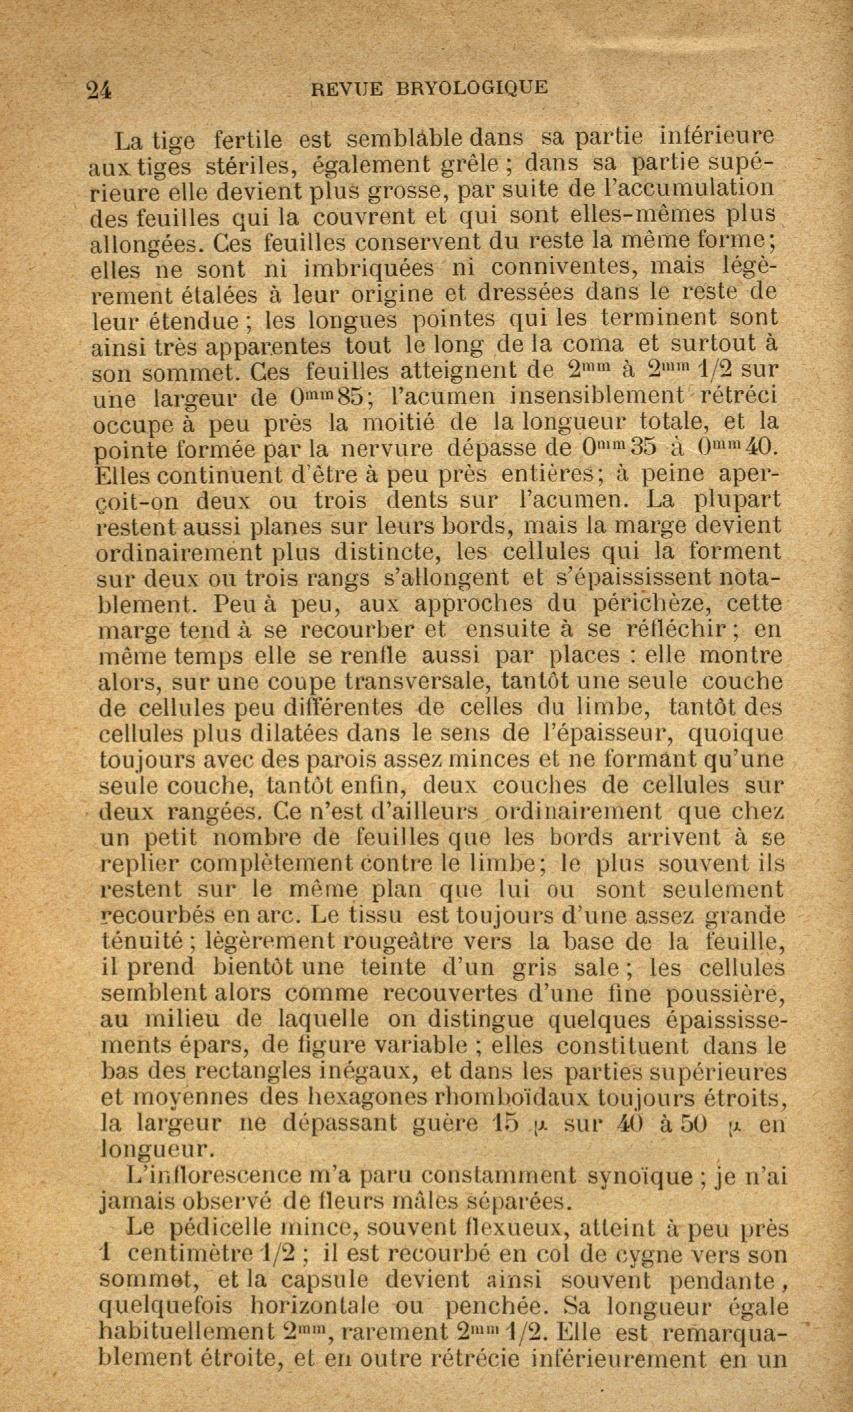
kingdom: Plantae
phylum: Bryophyta
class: Bryopsida
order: Bryales
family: Bryaceae
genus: Ptychostomum
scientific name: Ptychostomum intermedium
